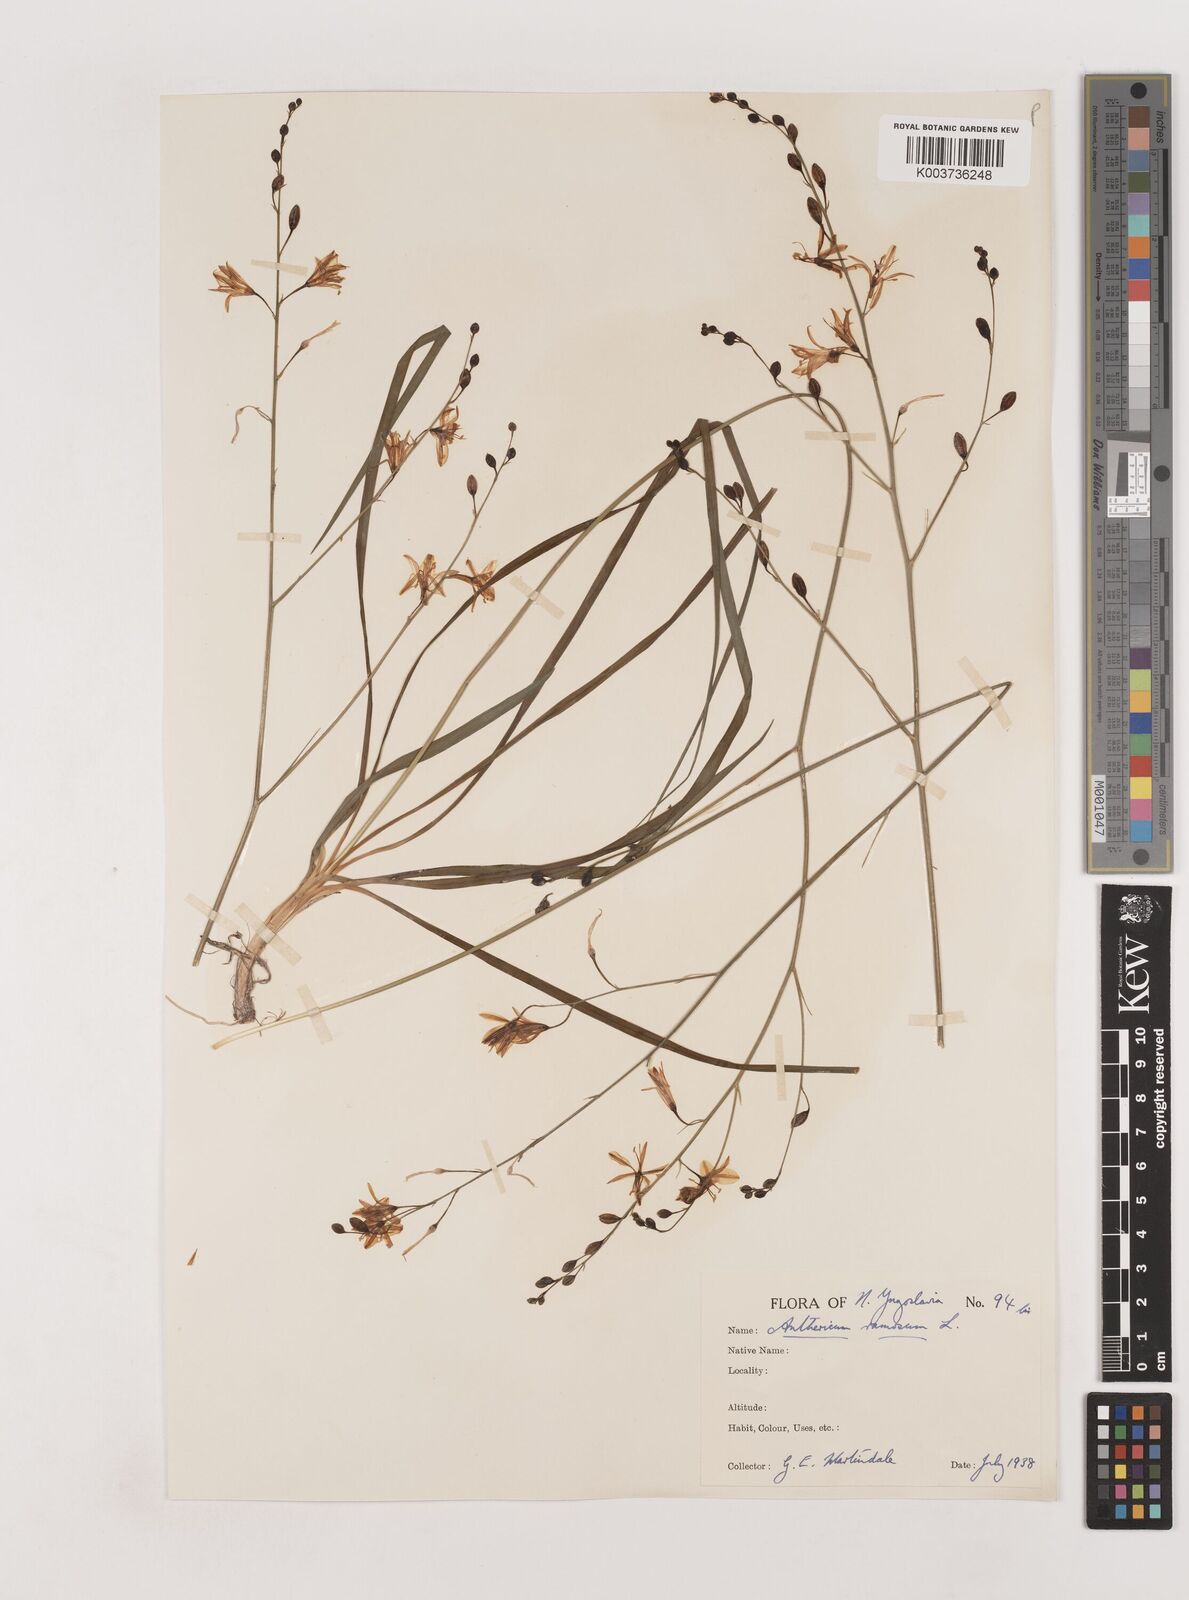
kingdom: Plantae
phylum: Tracheophyta
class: Liliopsida
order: Asparagales
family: Asparagaceae
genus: Anthericum
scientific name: Anthericum ramosum
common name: Branched st. bernard's-lily
